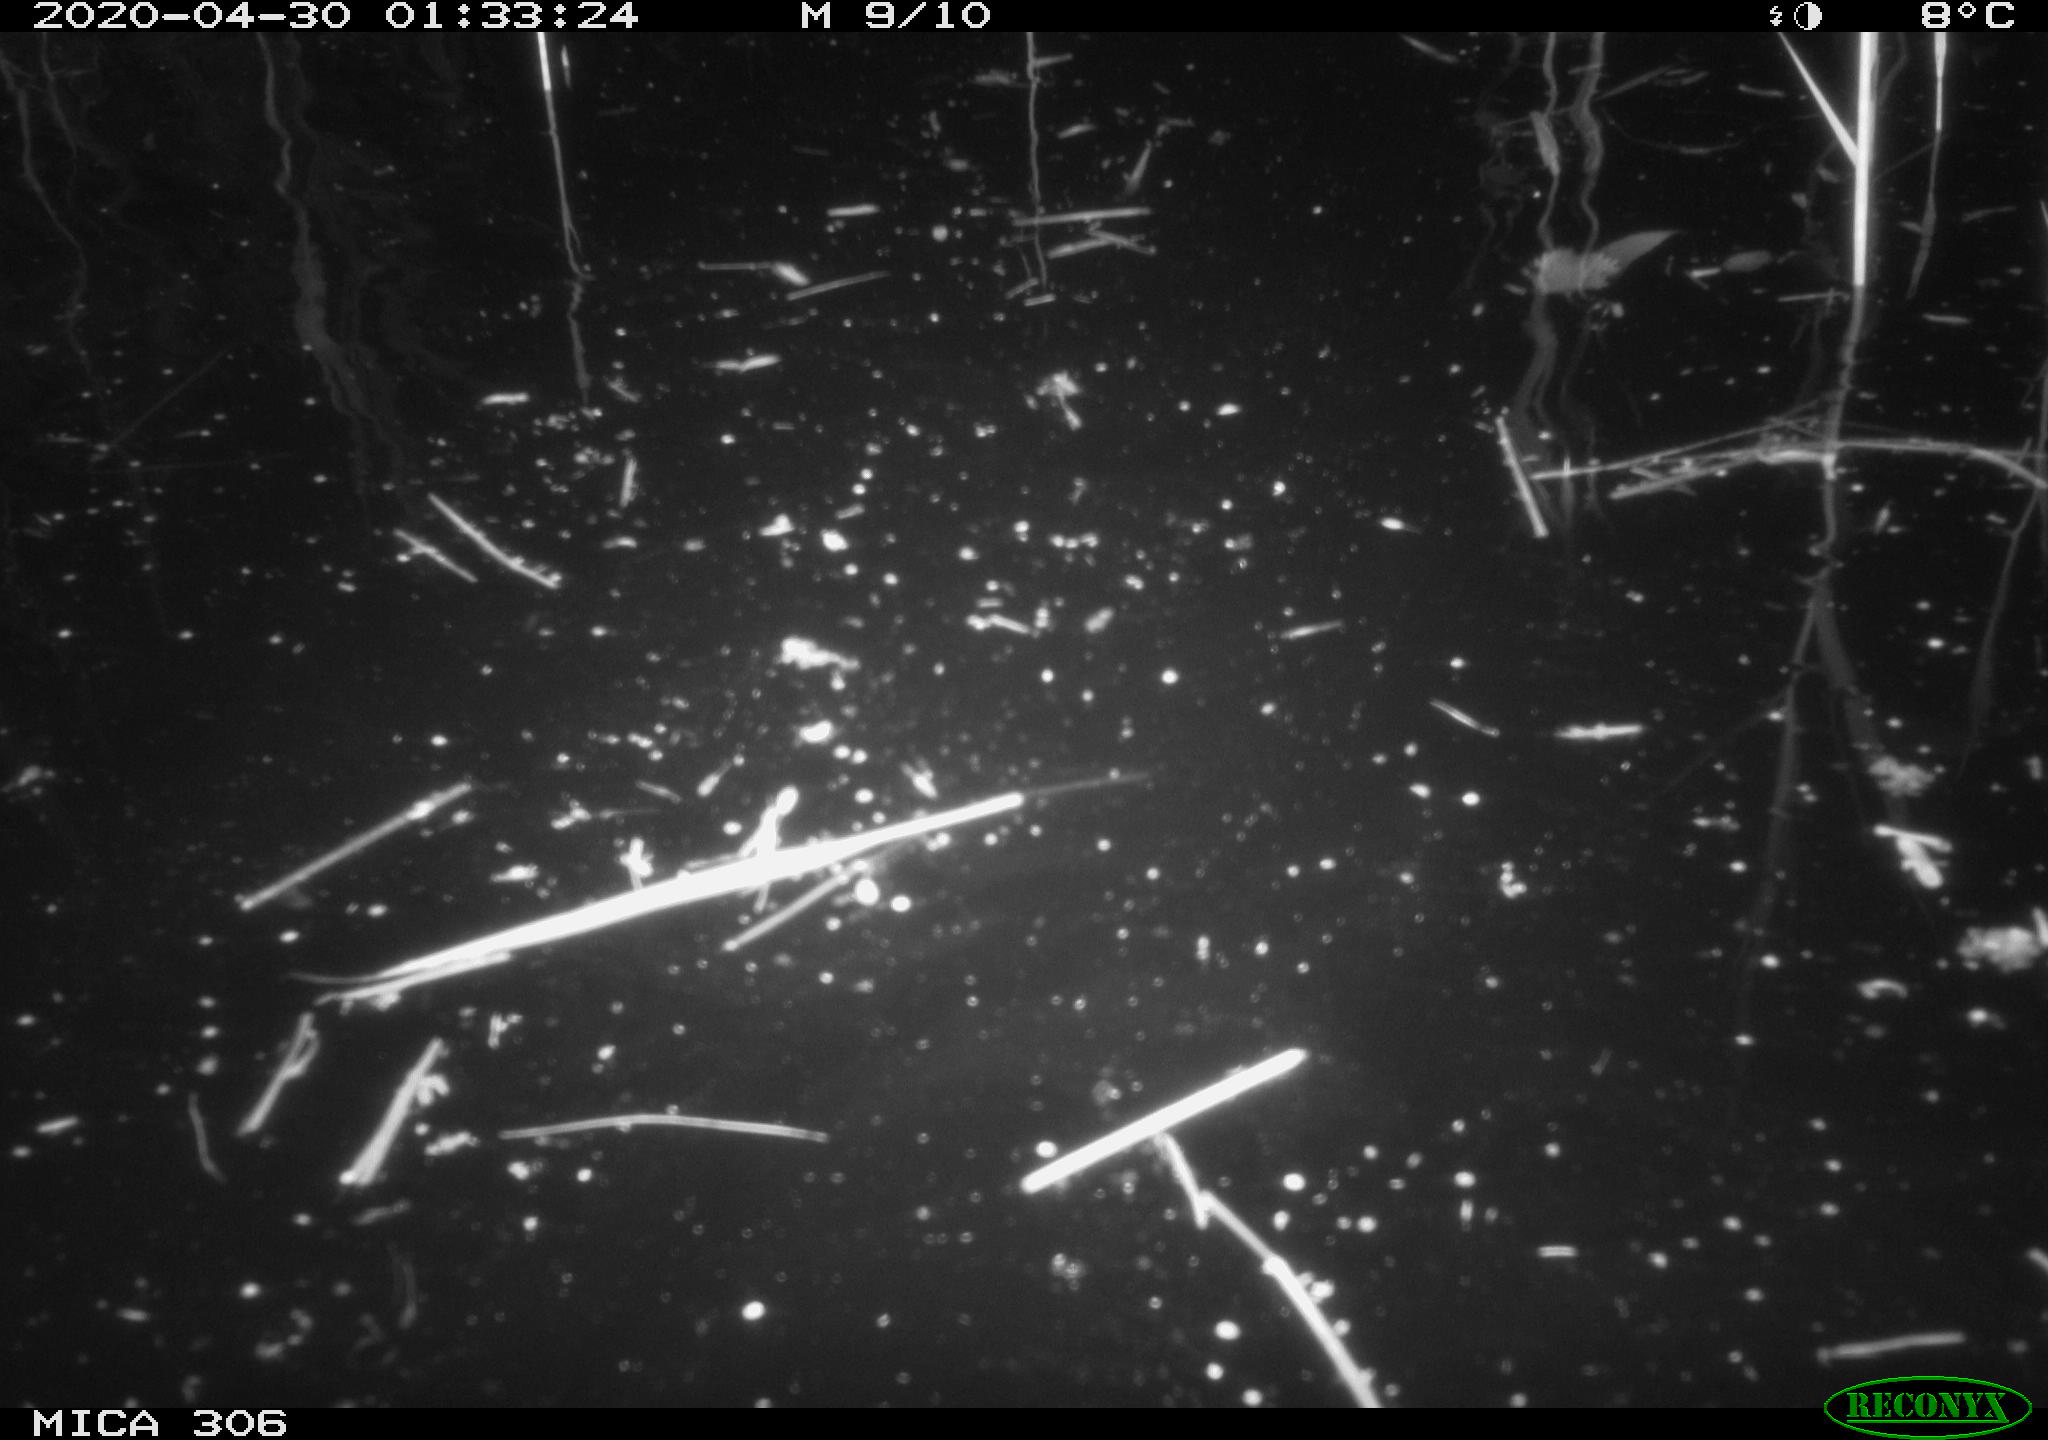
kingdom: Animalia
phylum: Chordata
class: Mammalia
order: Rodentia
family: Cricetidae
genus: Ondatra
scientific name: Ondatra zibethicus
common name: Muskrat
